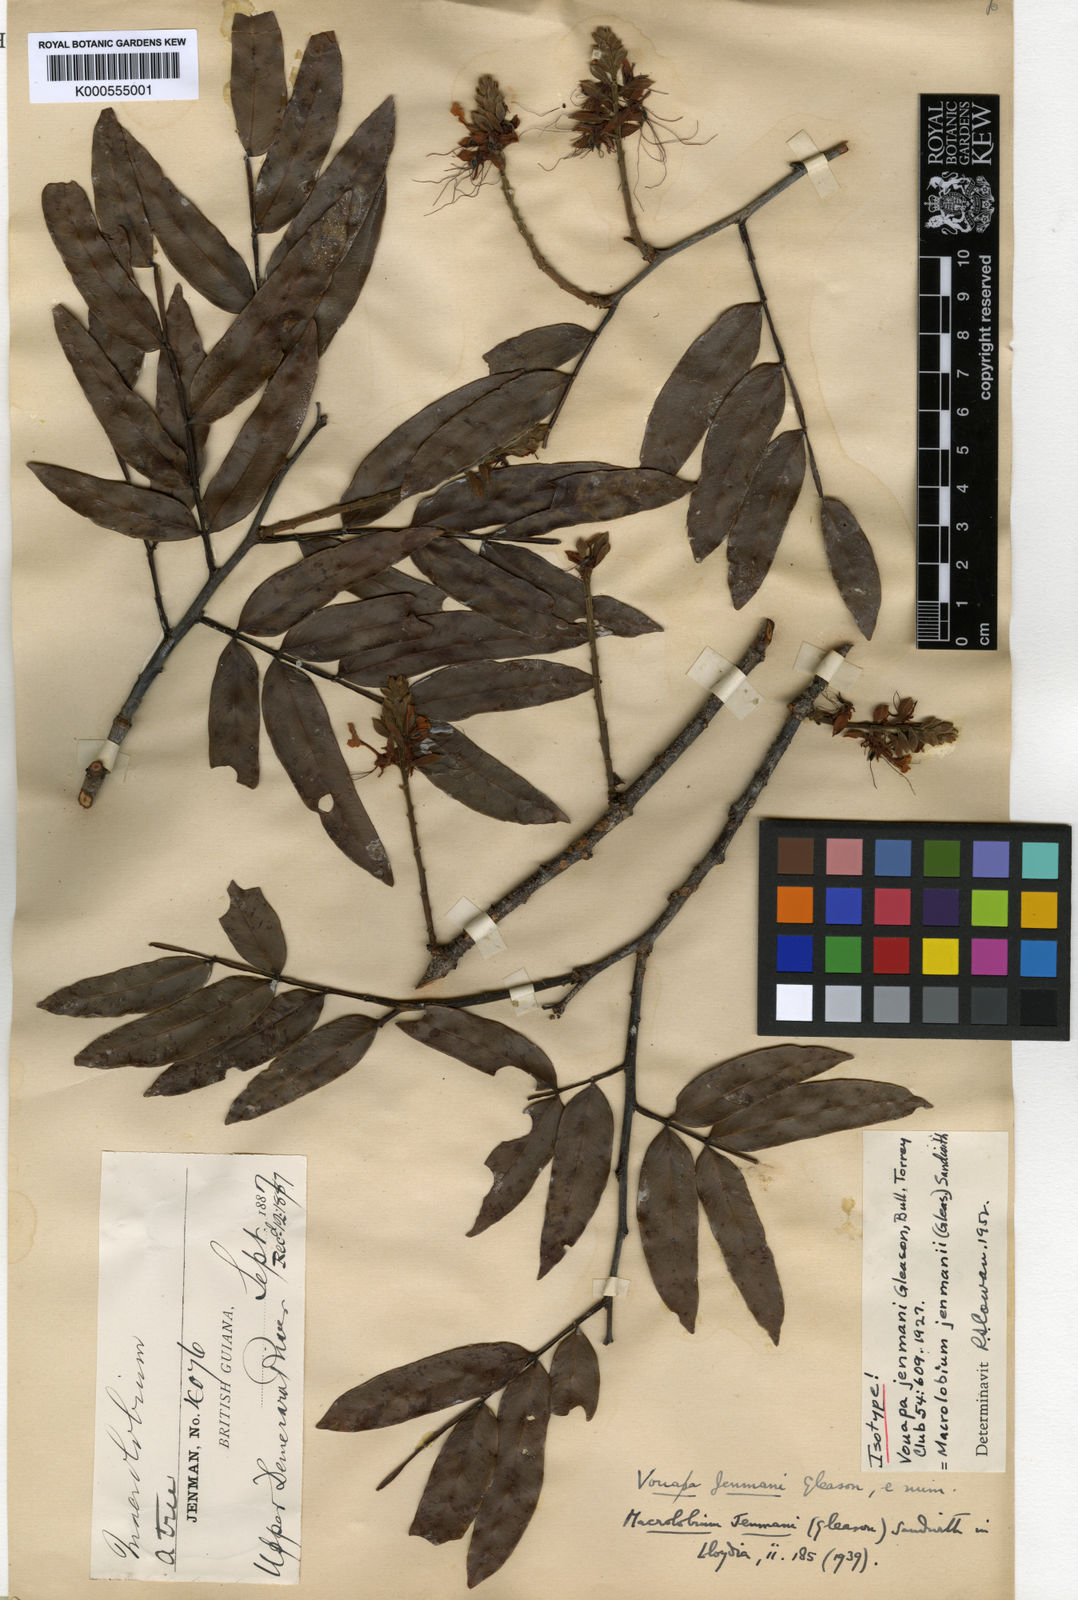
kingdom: Plantae
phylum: Tracheophyta
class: Magnoliopsida
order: Fabales
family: Fabaceae
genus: Macrolobium
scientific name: Macrolobium jenmanii
